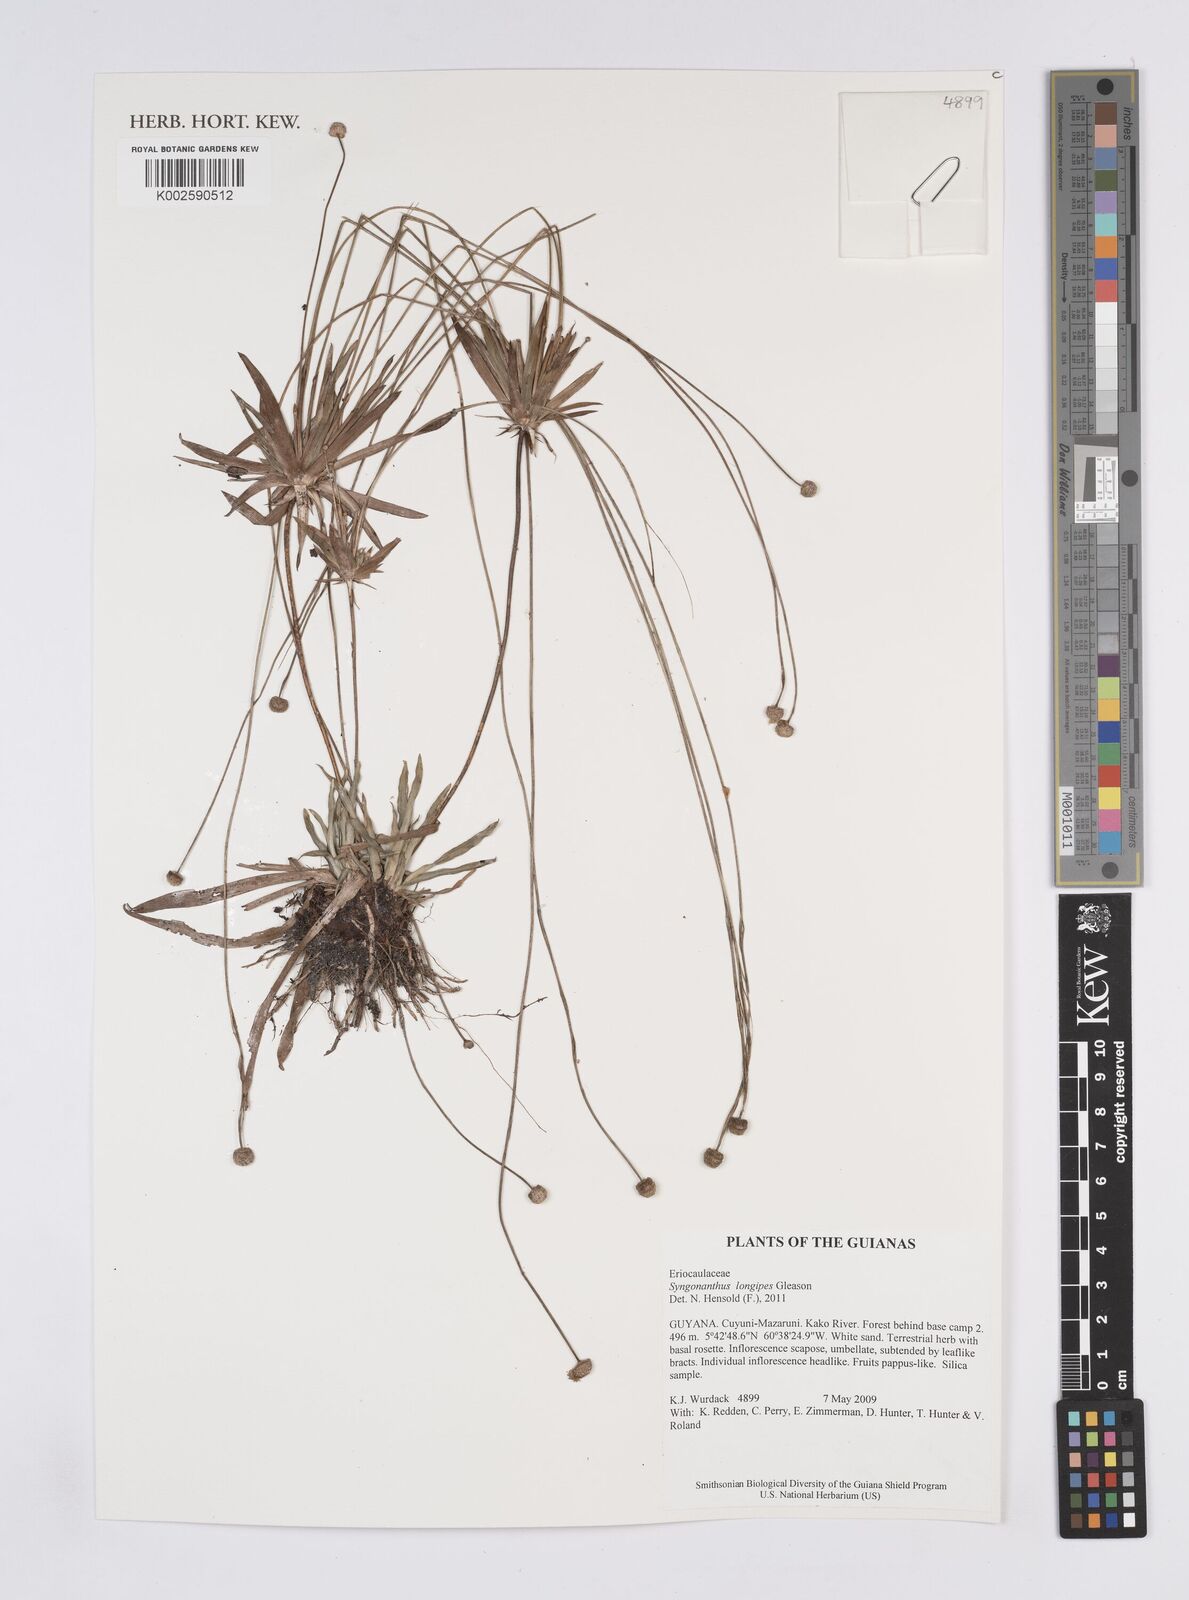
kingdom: Plantae
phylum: Tracheophyta
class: Liliopsida
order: Poales
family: Eriocaulaceae
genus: Syngonanthus
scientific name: Syngonanthus longipes
